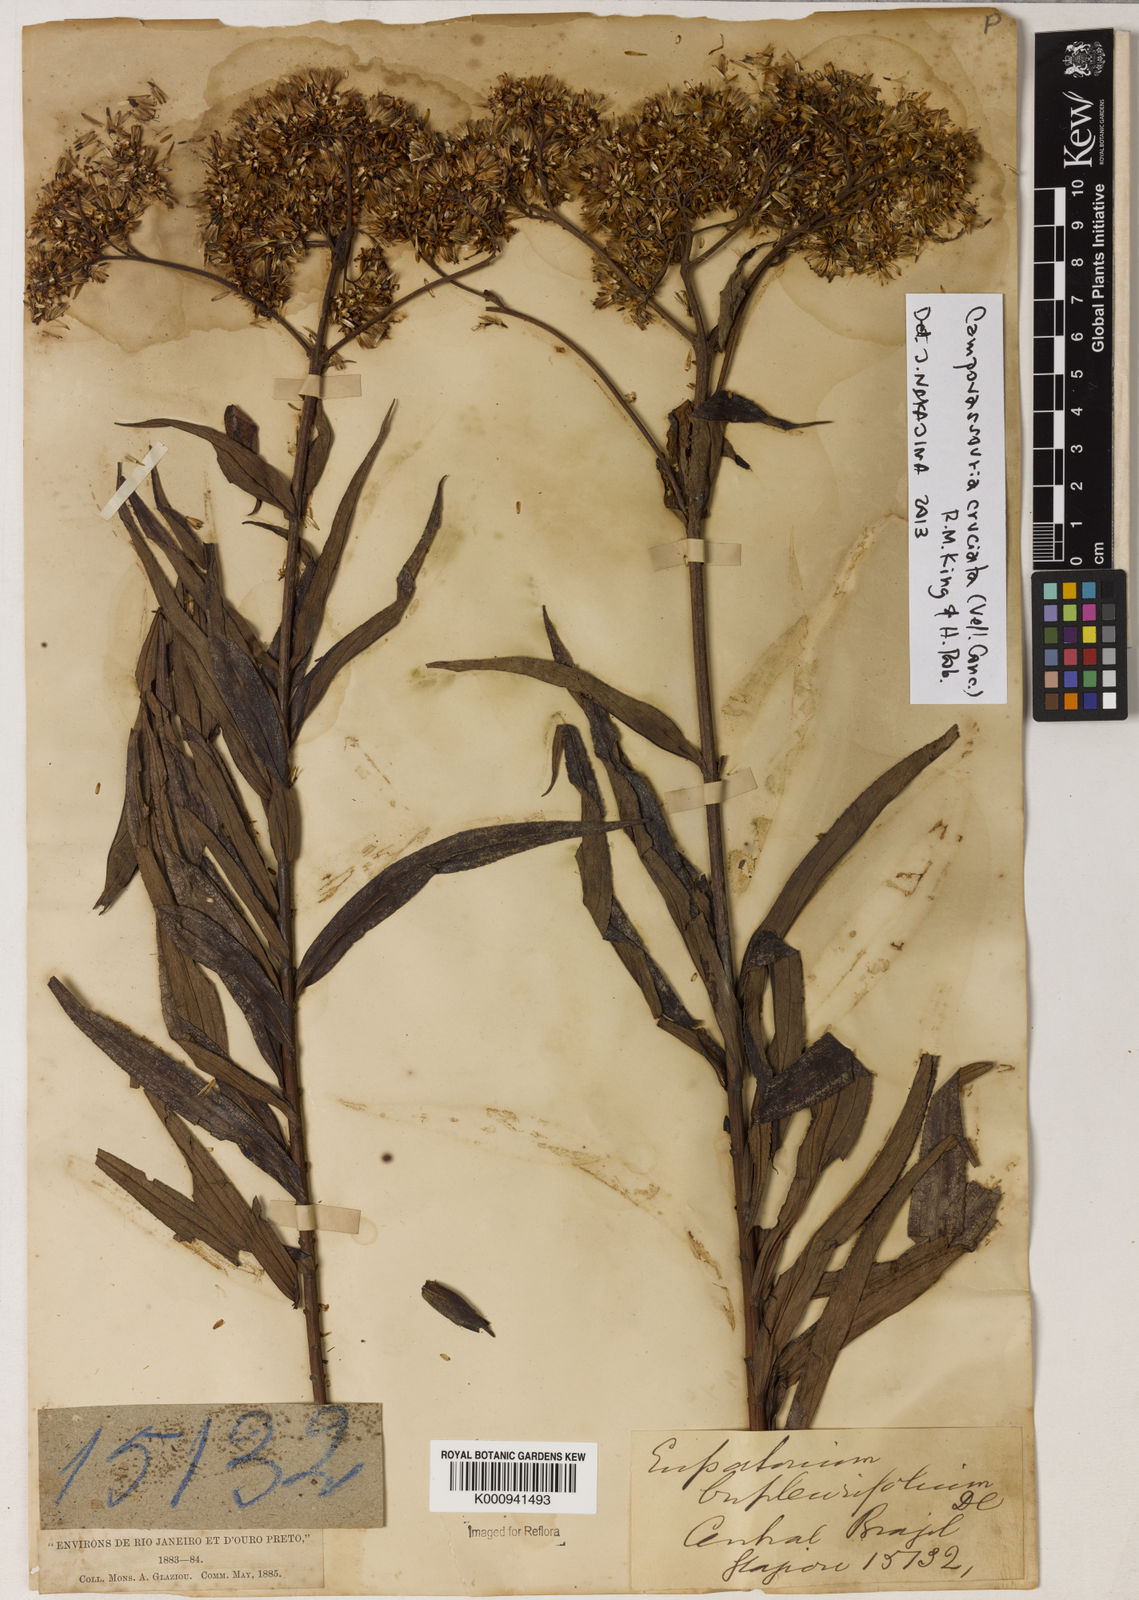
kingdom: Plantae
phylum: Tracheophyta
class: Magnoliopsida
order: Asterales
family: Asteraceae
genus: Campovassouria
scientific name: Campovassouria cruciata
